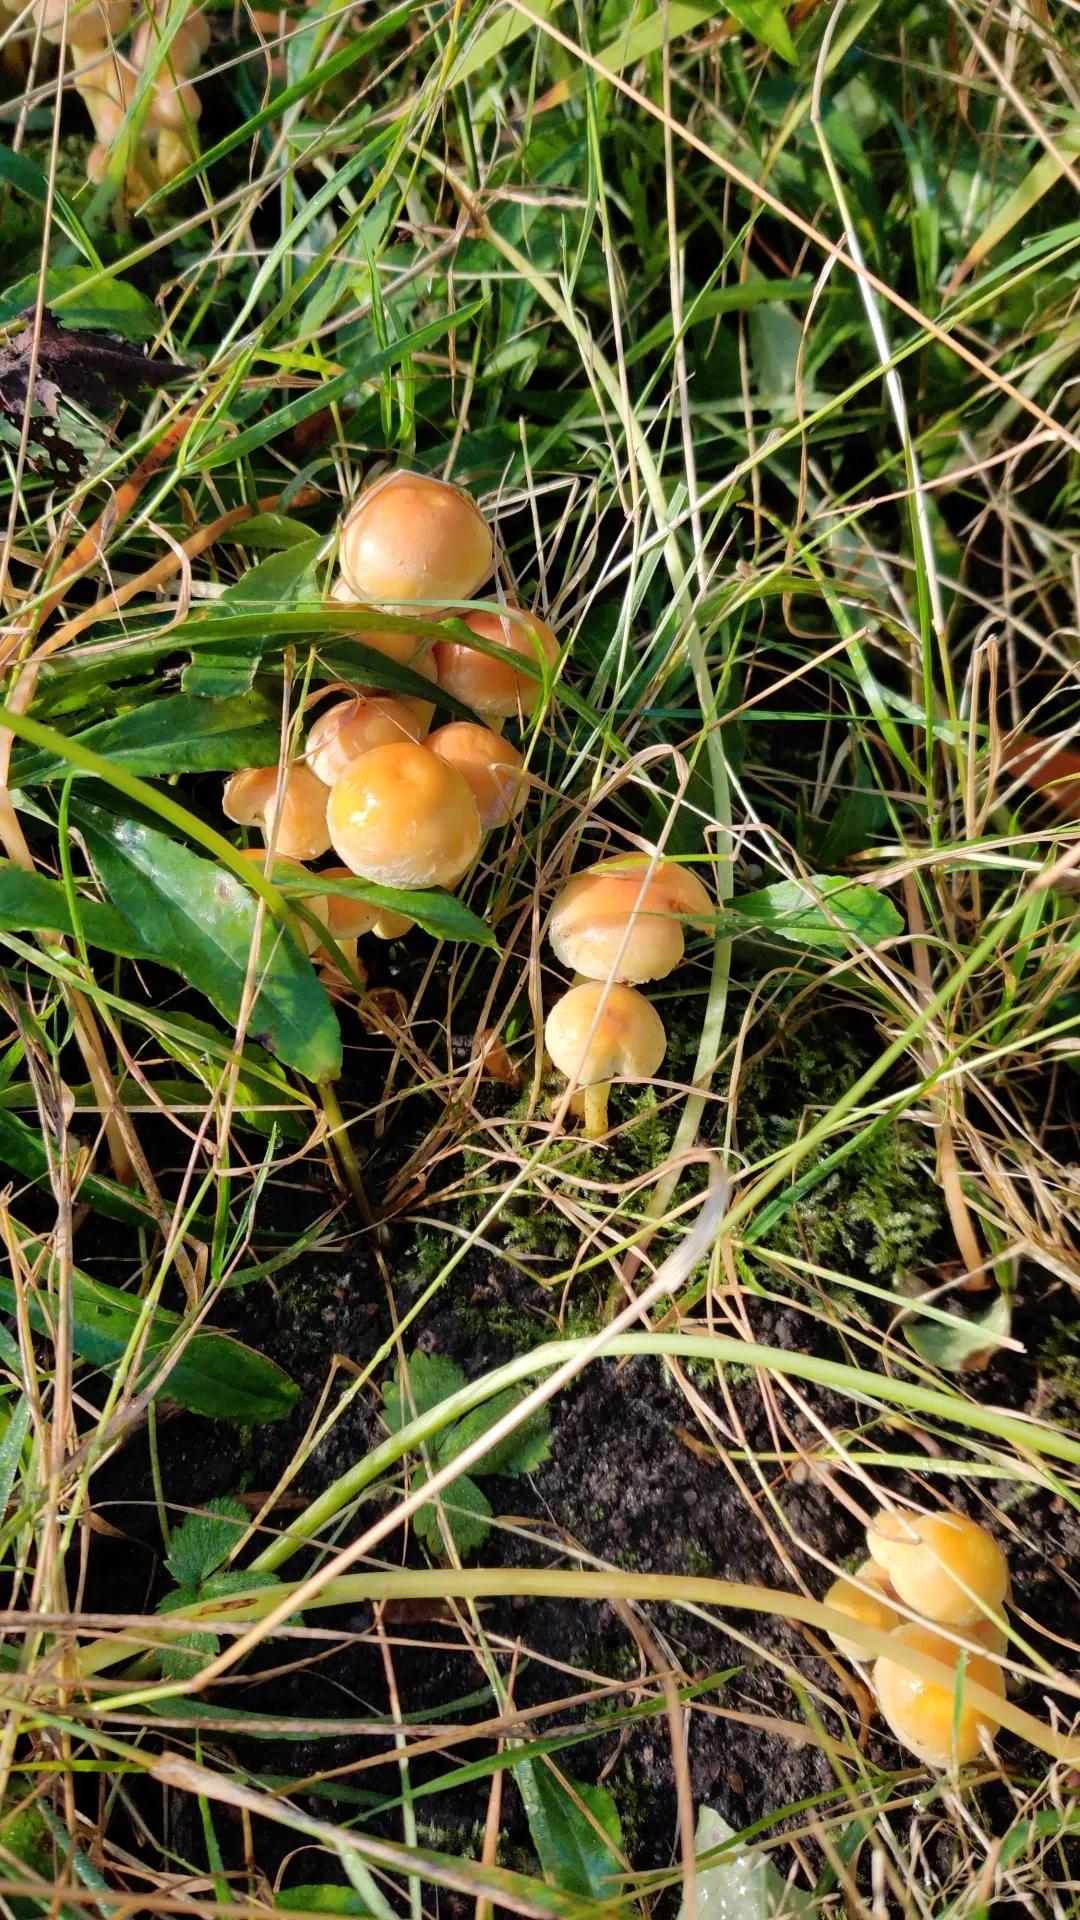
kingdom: Fungi
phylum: Basidiomycota
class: Agaricomycetes
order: Agaricales
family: Strophariaceae
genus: Hypholoma
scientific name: Hypholoma capnoides
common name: gran-svovlhat
